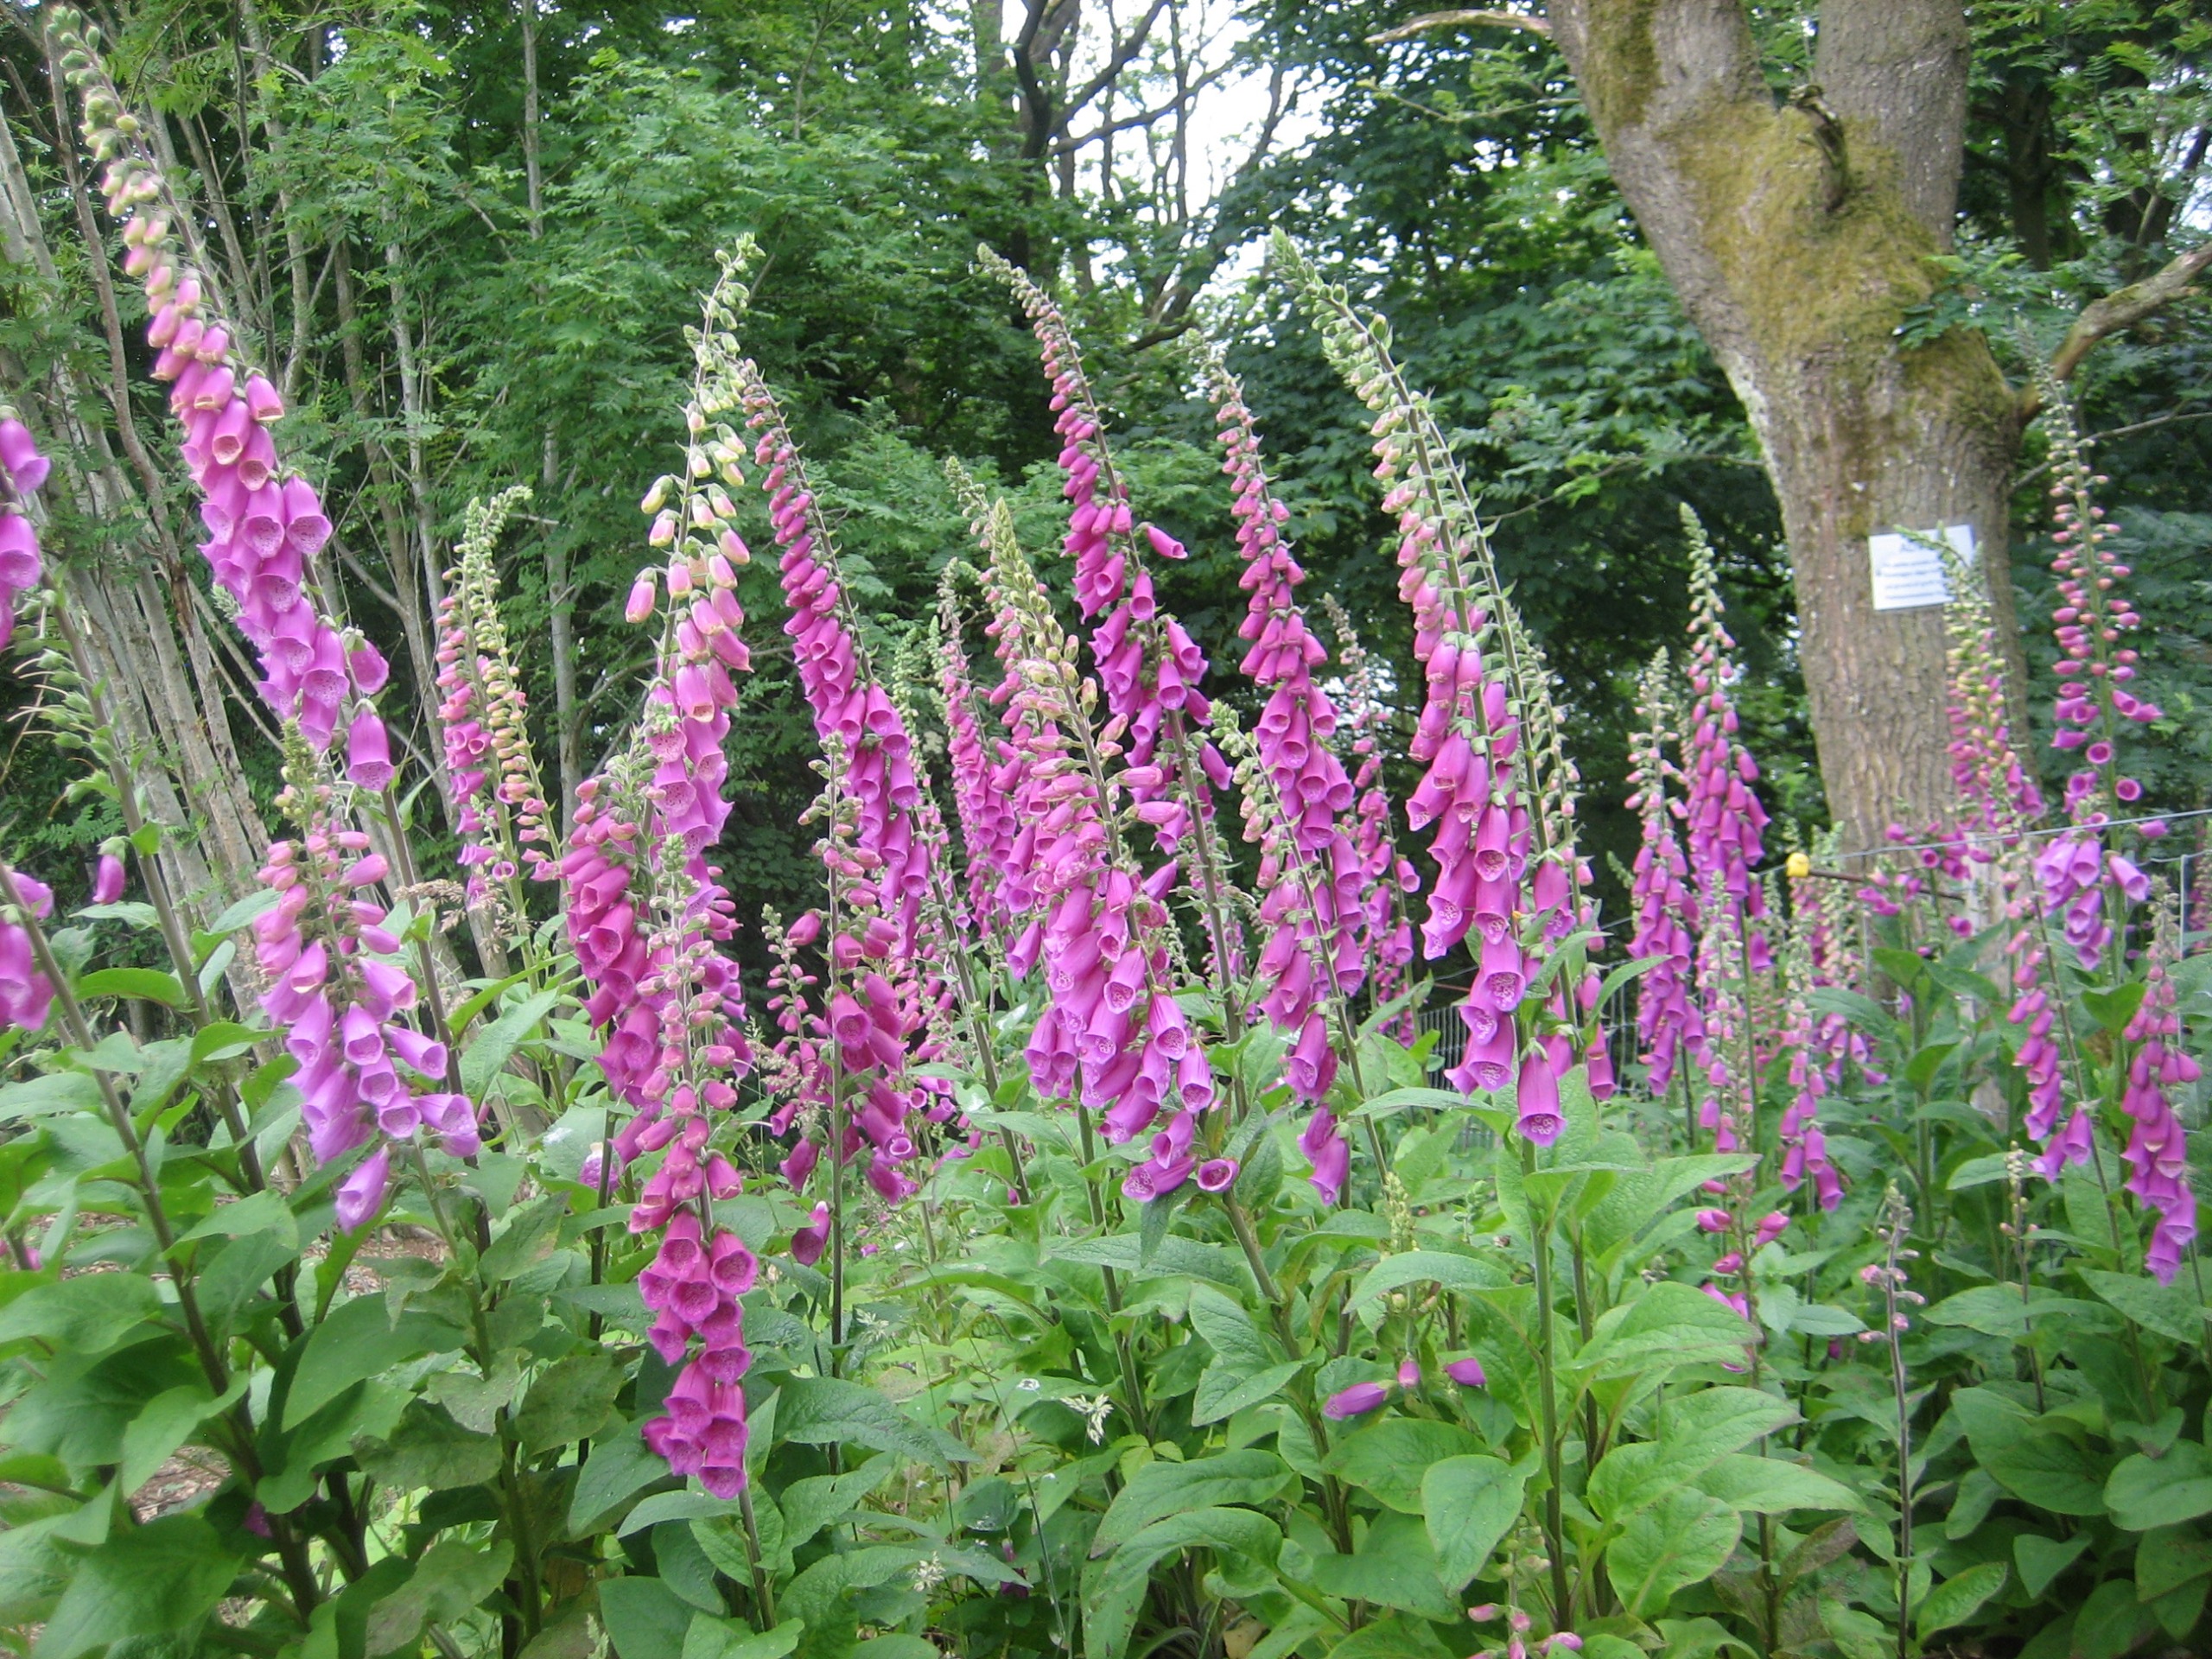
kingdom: Plantae
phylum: Tracheophyta
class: Magnoliopsida
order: Lamiales
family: Plantaginaceae
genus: Digitalis
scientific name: Digitalis purpurea
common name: Almindelig fingerbøl
